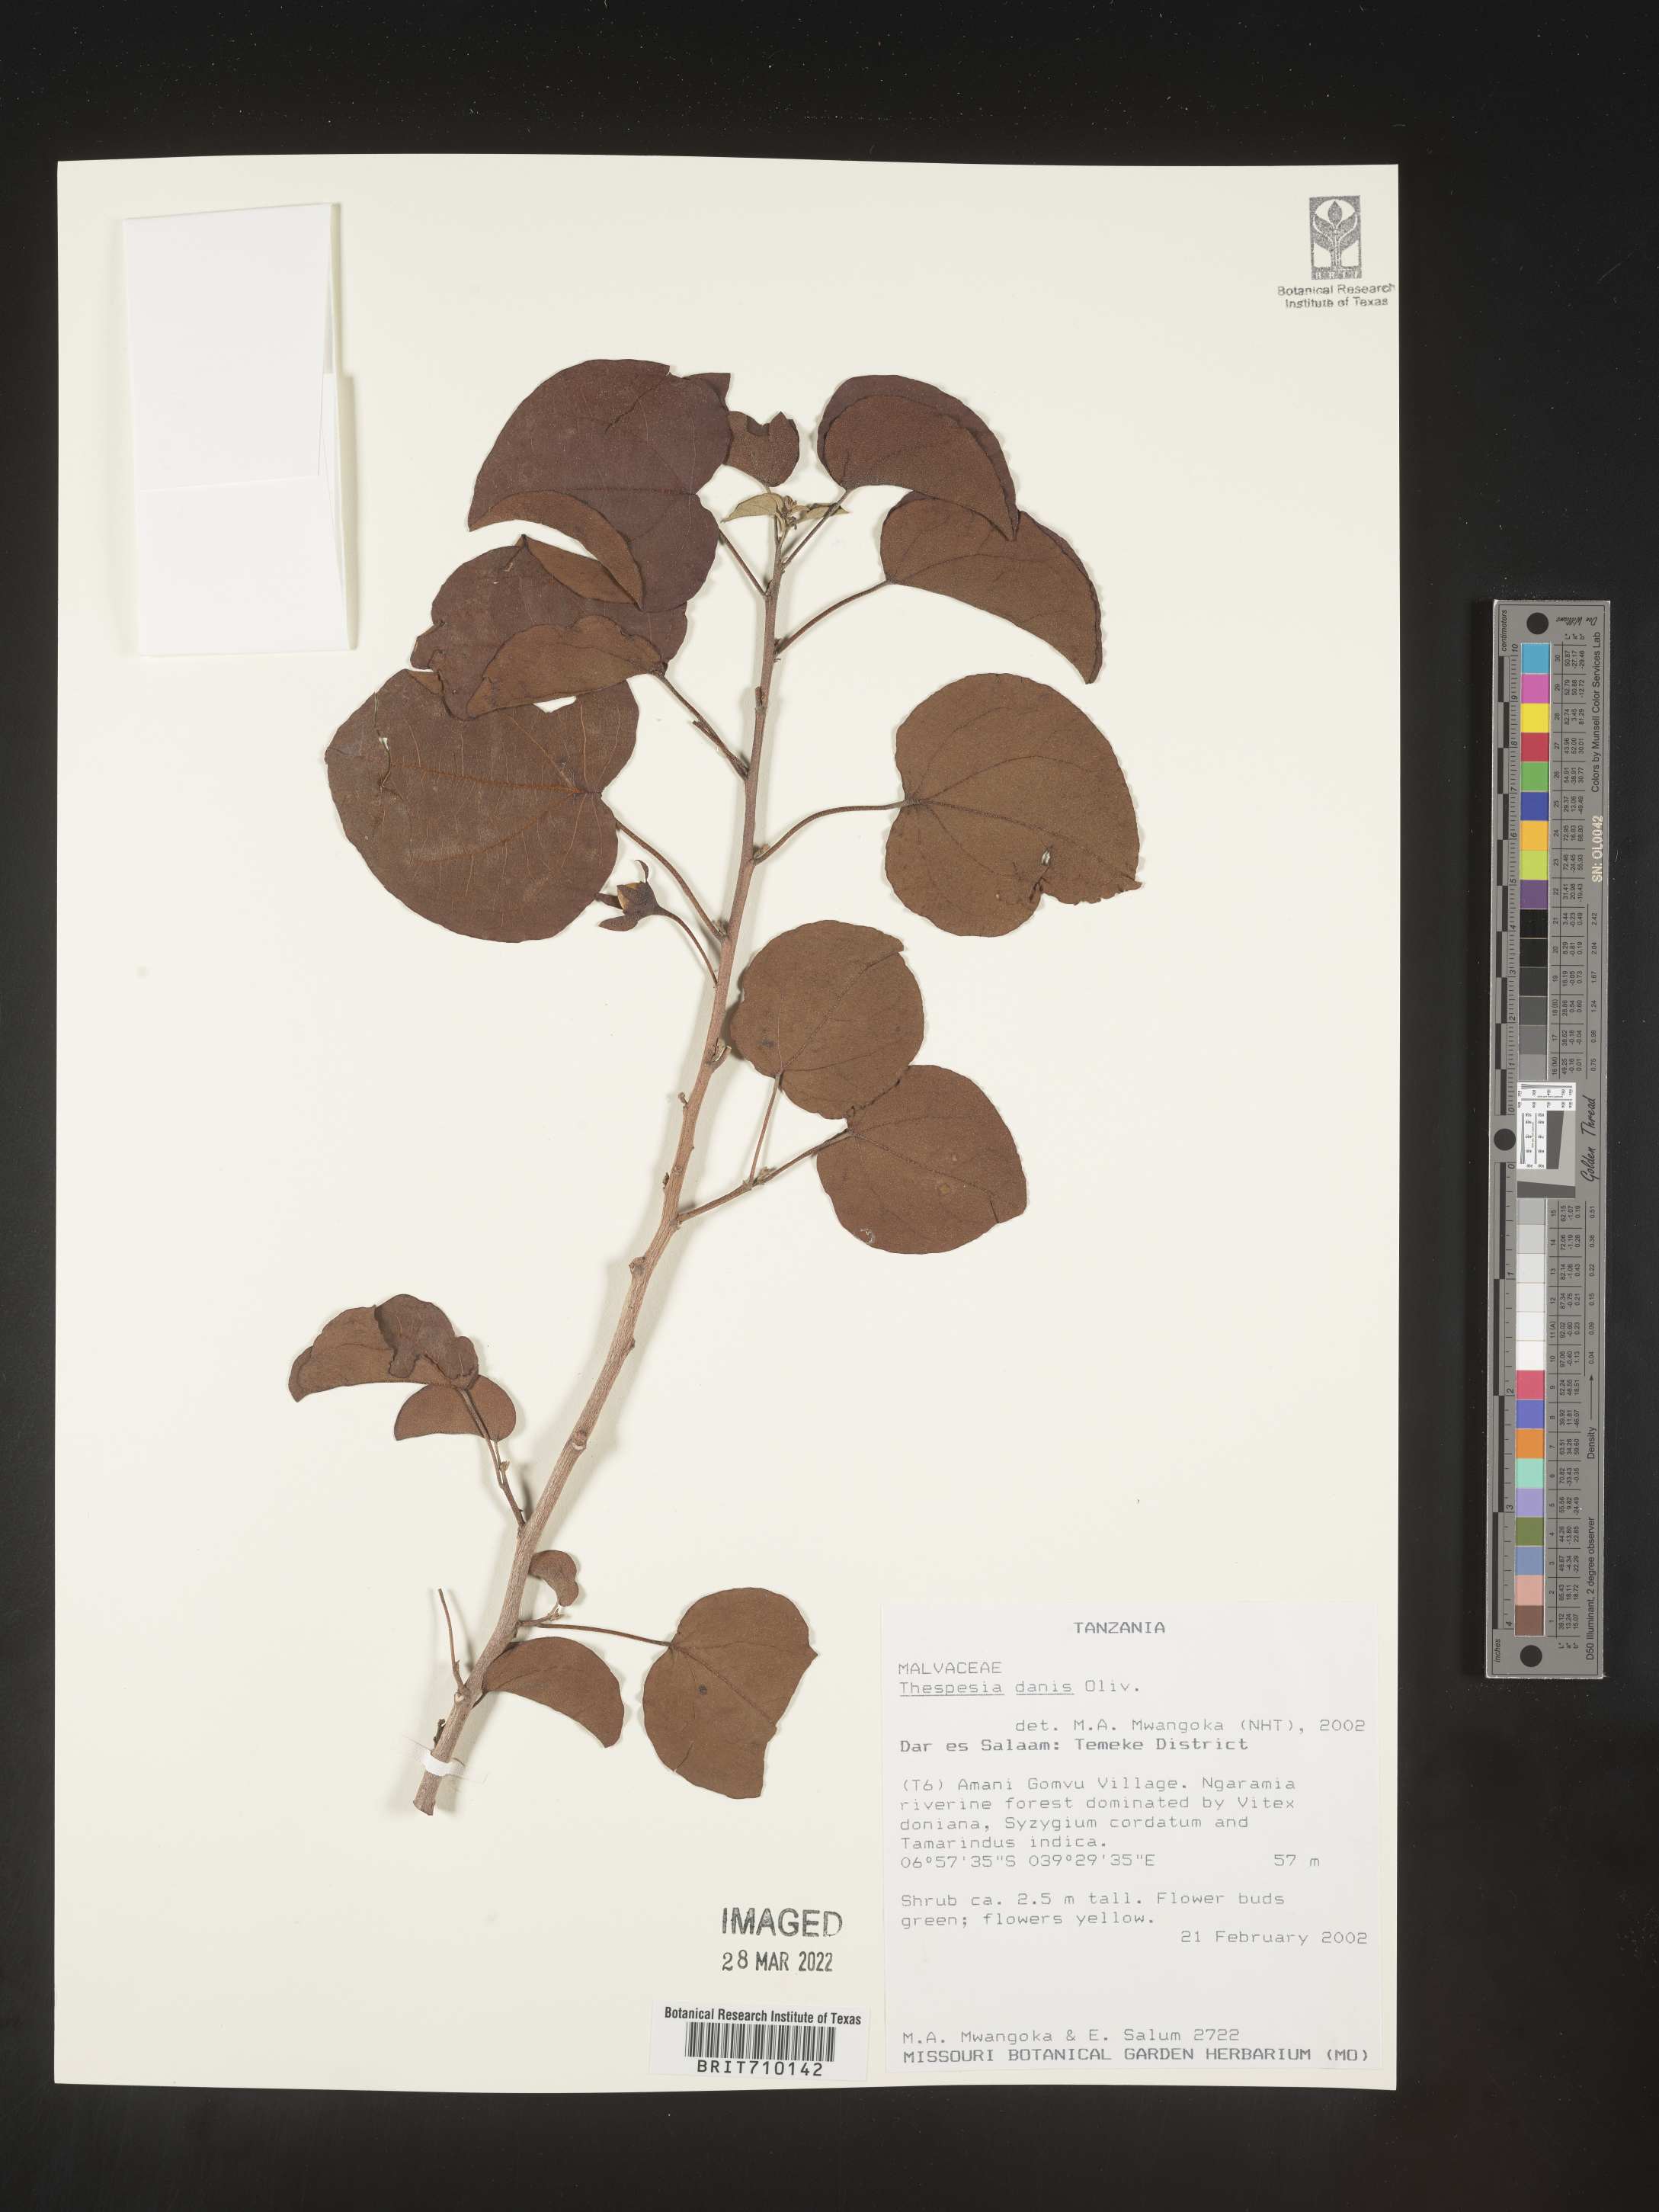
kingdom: Plantae
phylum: Tracheophyta
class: Magnoliopsida
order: Malvales
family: Malvaceae
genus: Thespesia
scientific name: Thespesia
